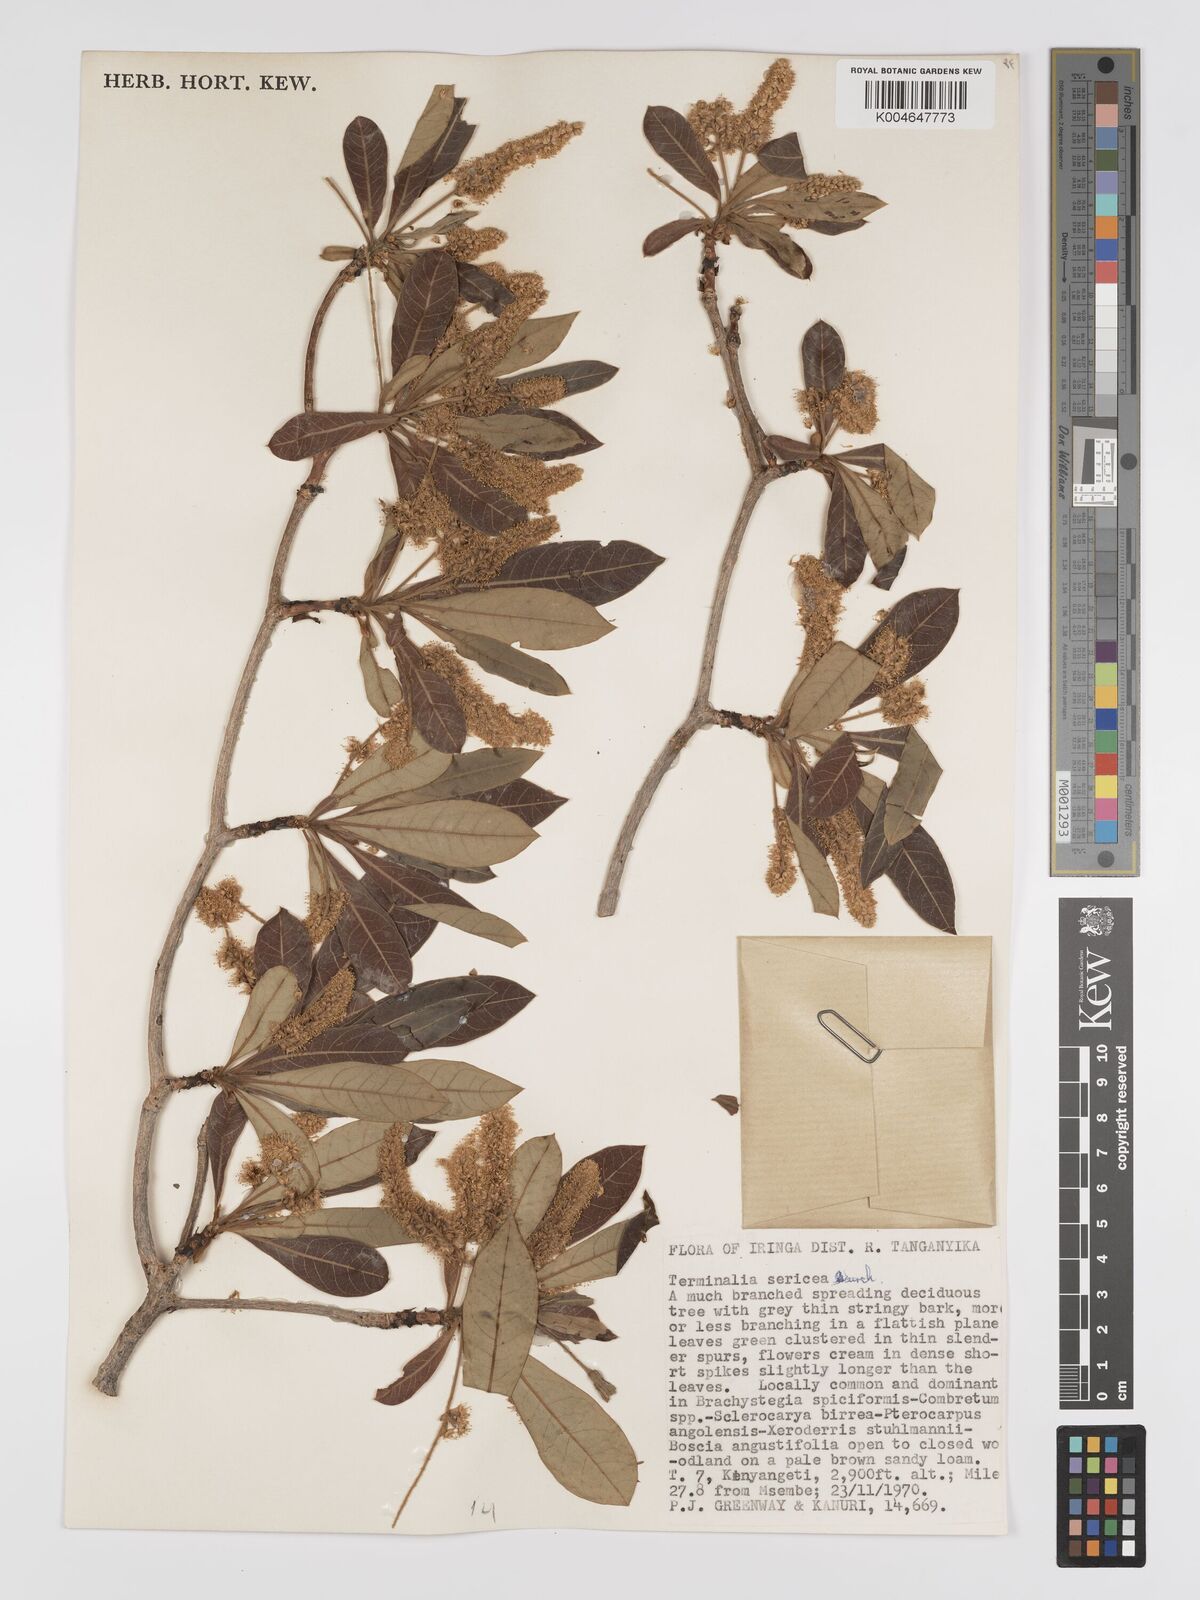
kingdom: Plantae
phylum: Tracheophyta
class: Magnoliopsida
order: Myrtales
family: Combretaceae
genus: Terminalia
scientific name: Terminalia
